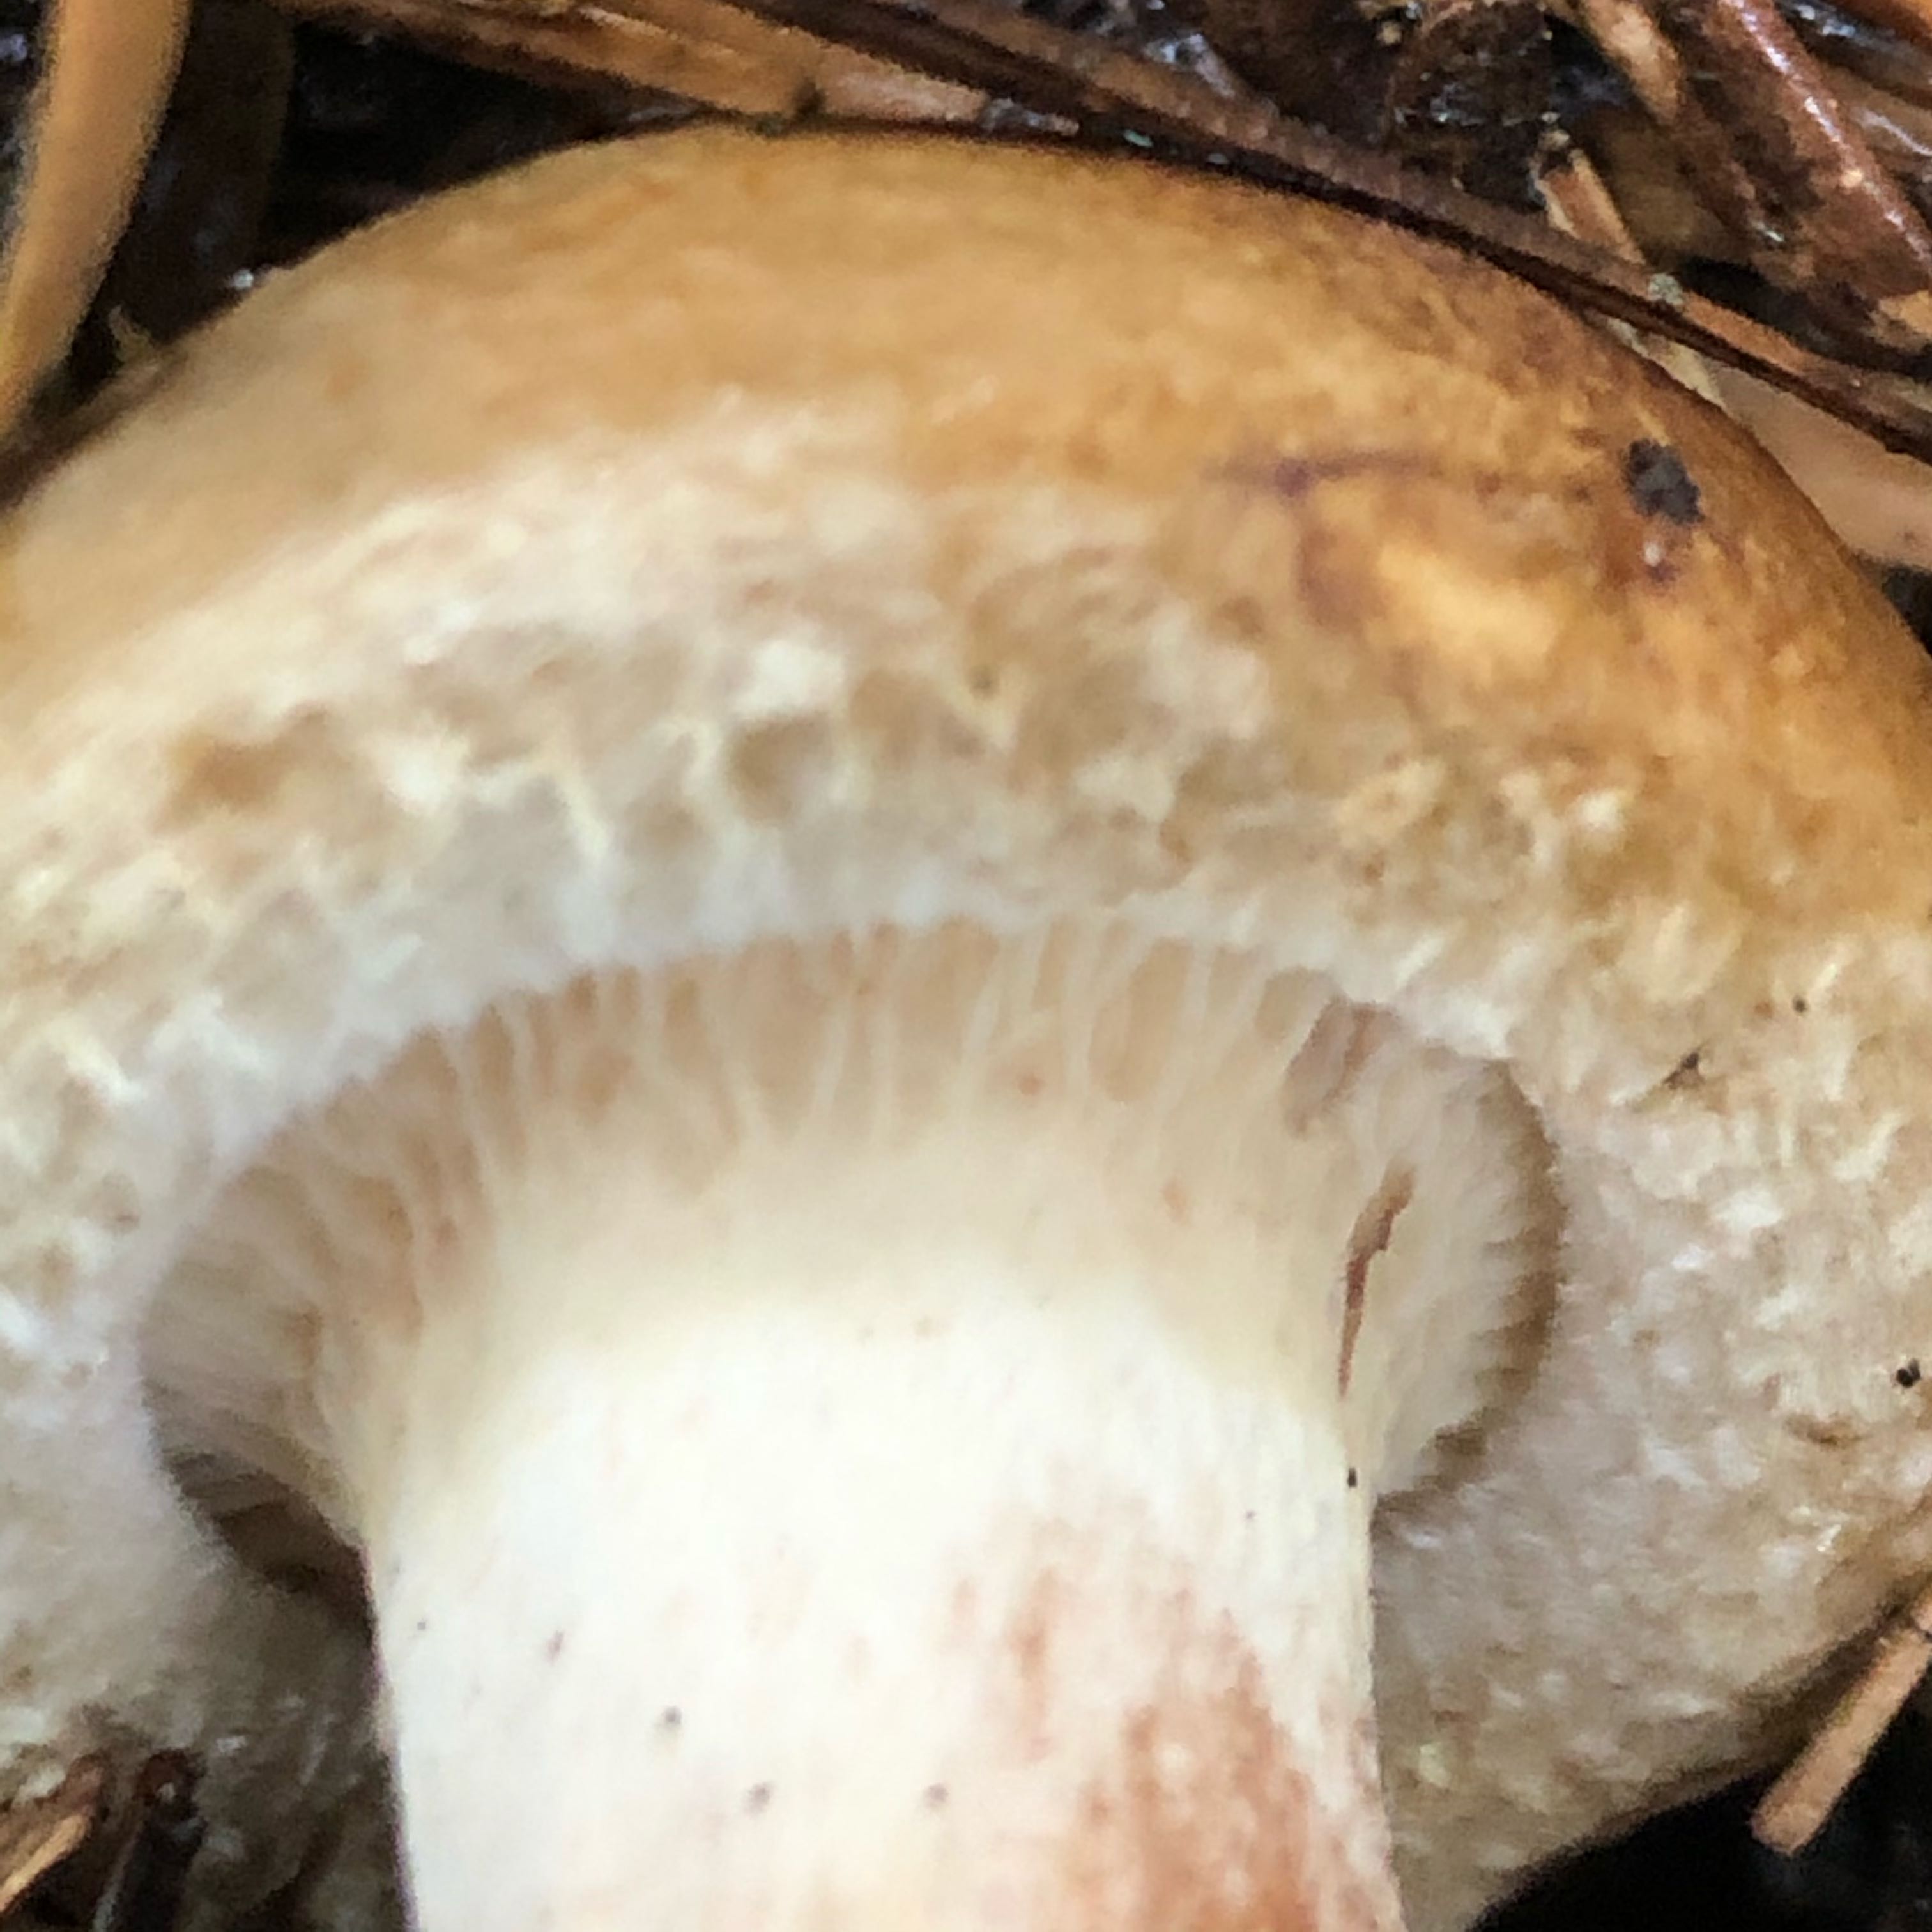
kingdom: Fungi
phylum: Basidiomycota
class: Agaricomycetes
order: Boletales
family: Paxillaceae
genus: Paxillus
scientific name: Paxillus involutus
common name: almindelig netbladhat
